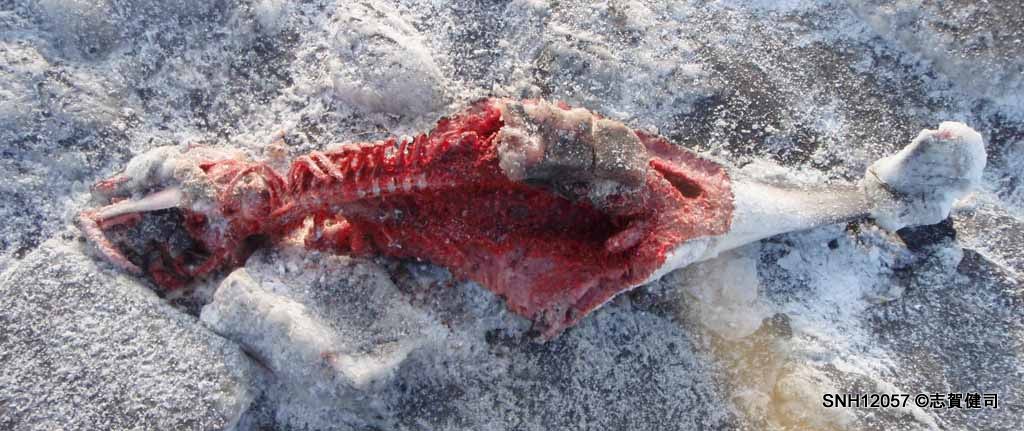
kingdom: Animalia
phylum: Chordata
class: Mammalia
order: Cetacea
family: Phocoenidae
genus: Phocoena
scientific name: Phocoena phocoena
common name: Harbour porpoise
